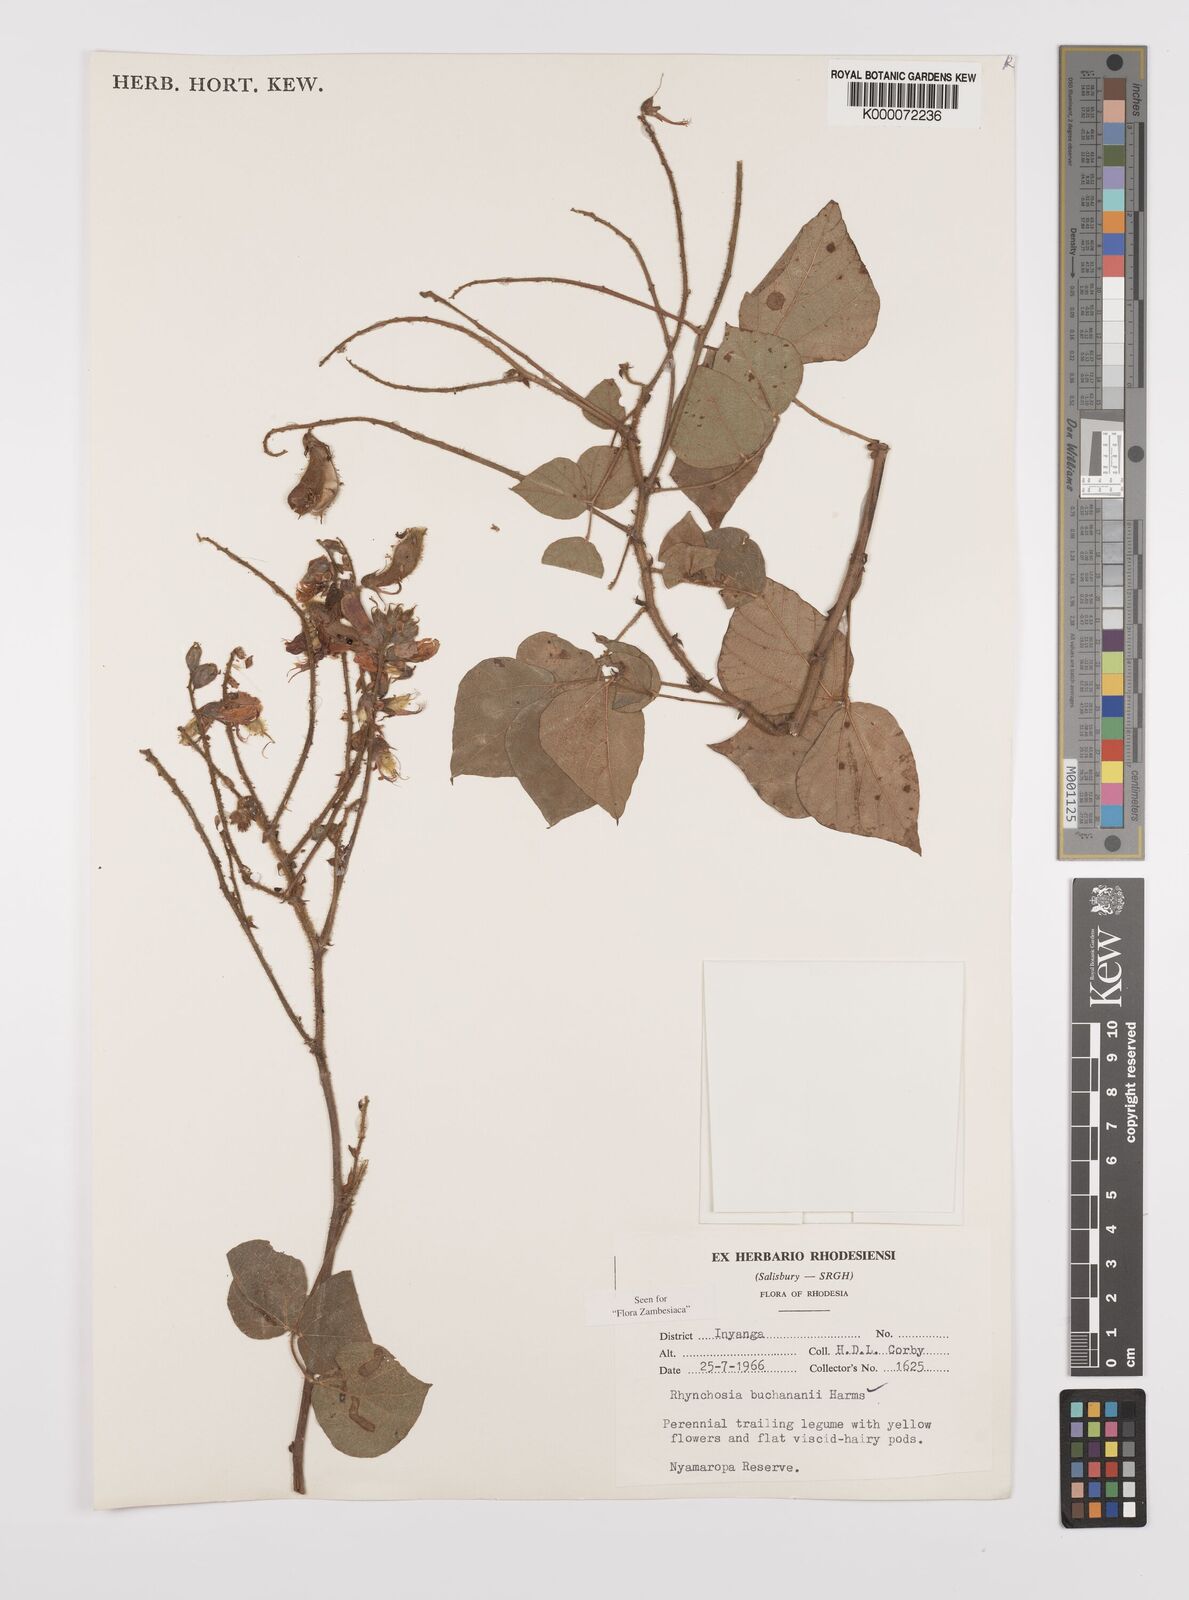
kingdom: Plantae
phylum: Tracheophyta
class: Magnoliopsida
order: Fabales
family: Fabaceae
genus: Rhynchosia
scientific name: Rhynchosia buchananii
